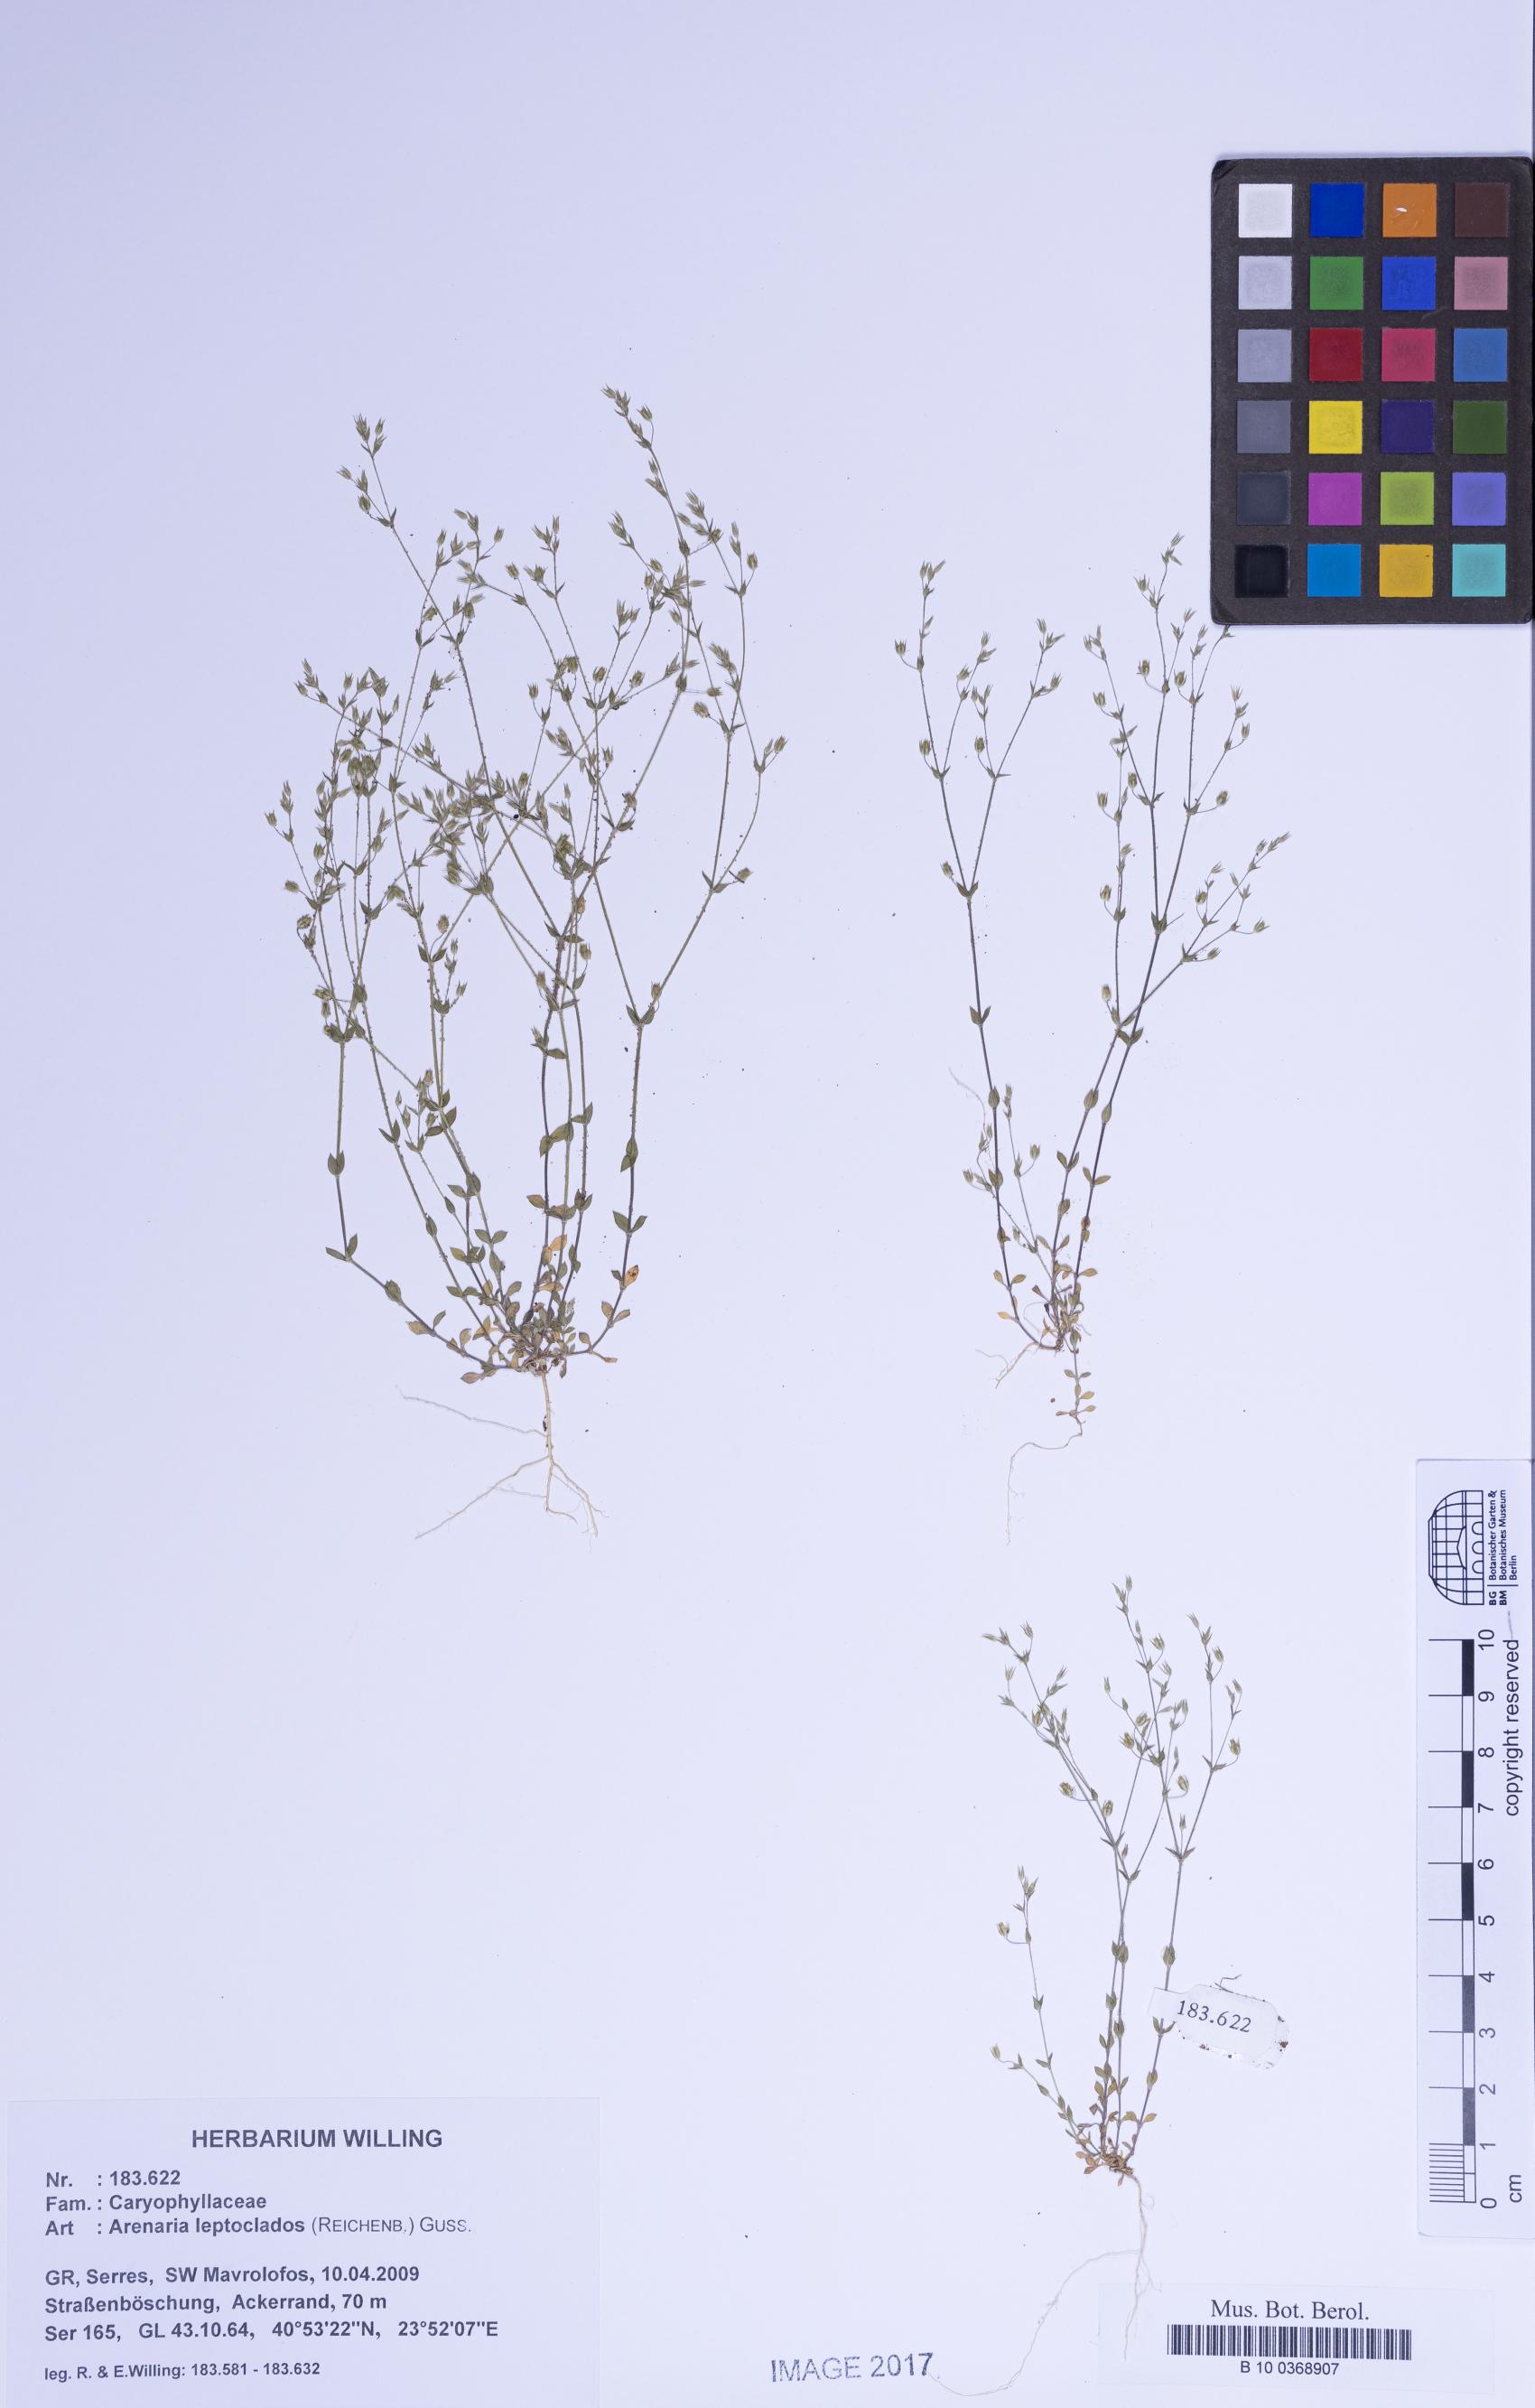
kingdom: Plantae
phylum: Tracheophyta
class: Magnoliopsida
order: Caryophyllales
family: Caryophyllaceae
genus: Arenaria
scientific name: Arenaria leptoclados
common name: Thyme-leaved sandwort
